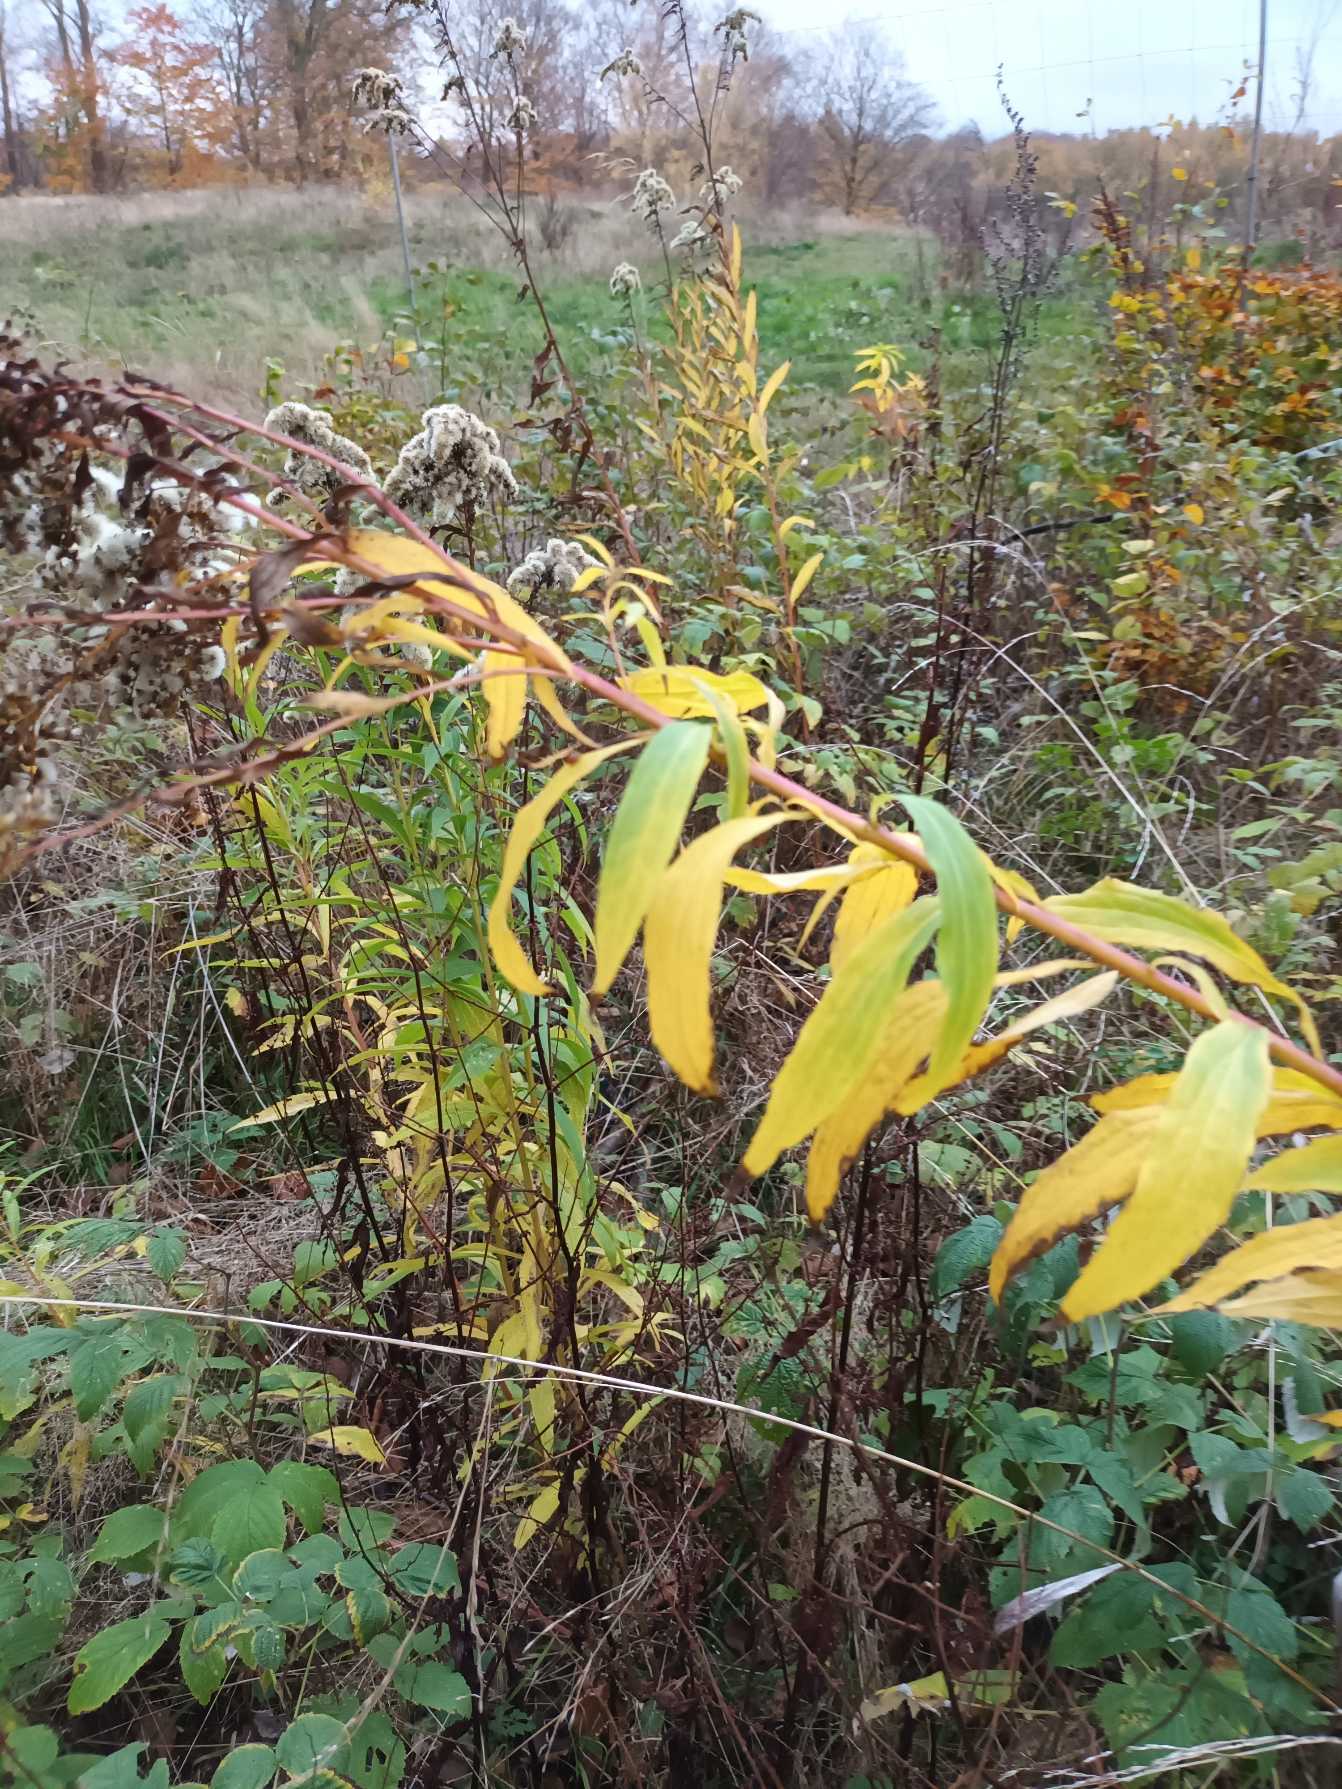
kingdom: Plantae
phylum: Tracheophyta
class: Magnoliopsida
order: Asterales
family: Asteraceae
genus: Solidago
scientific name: Solidago gigantea
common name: Sildig gyldenris
